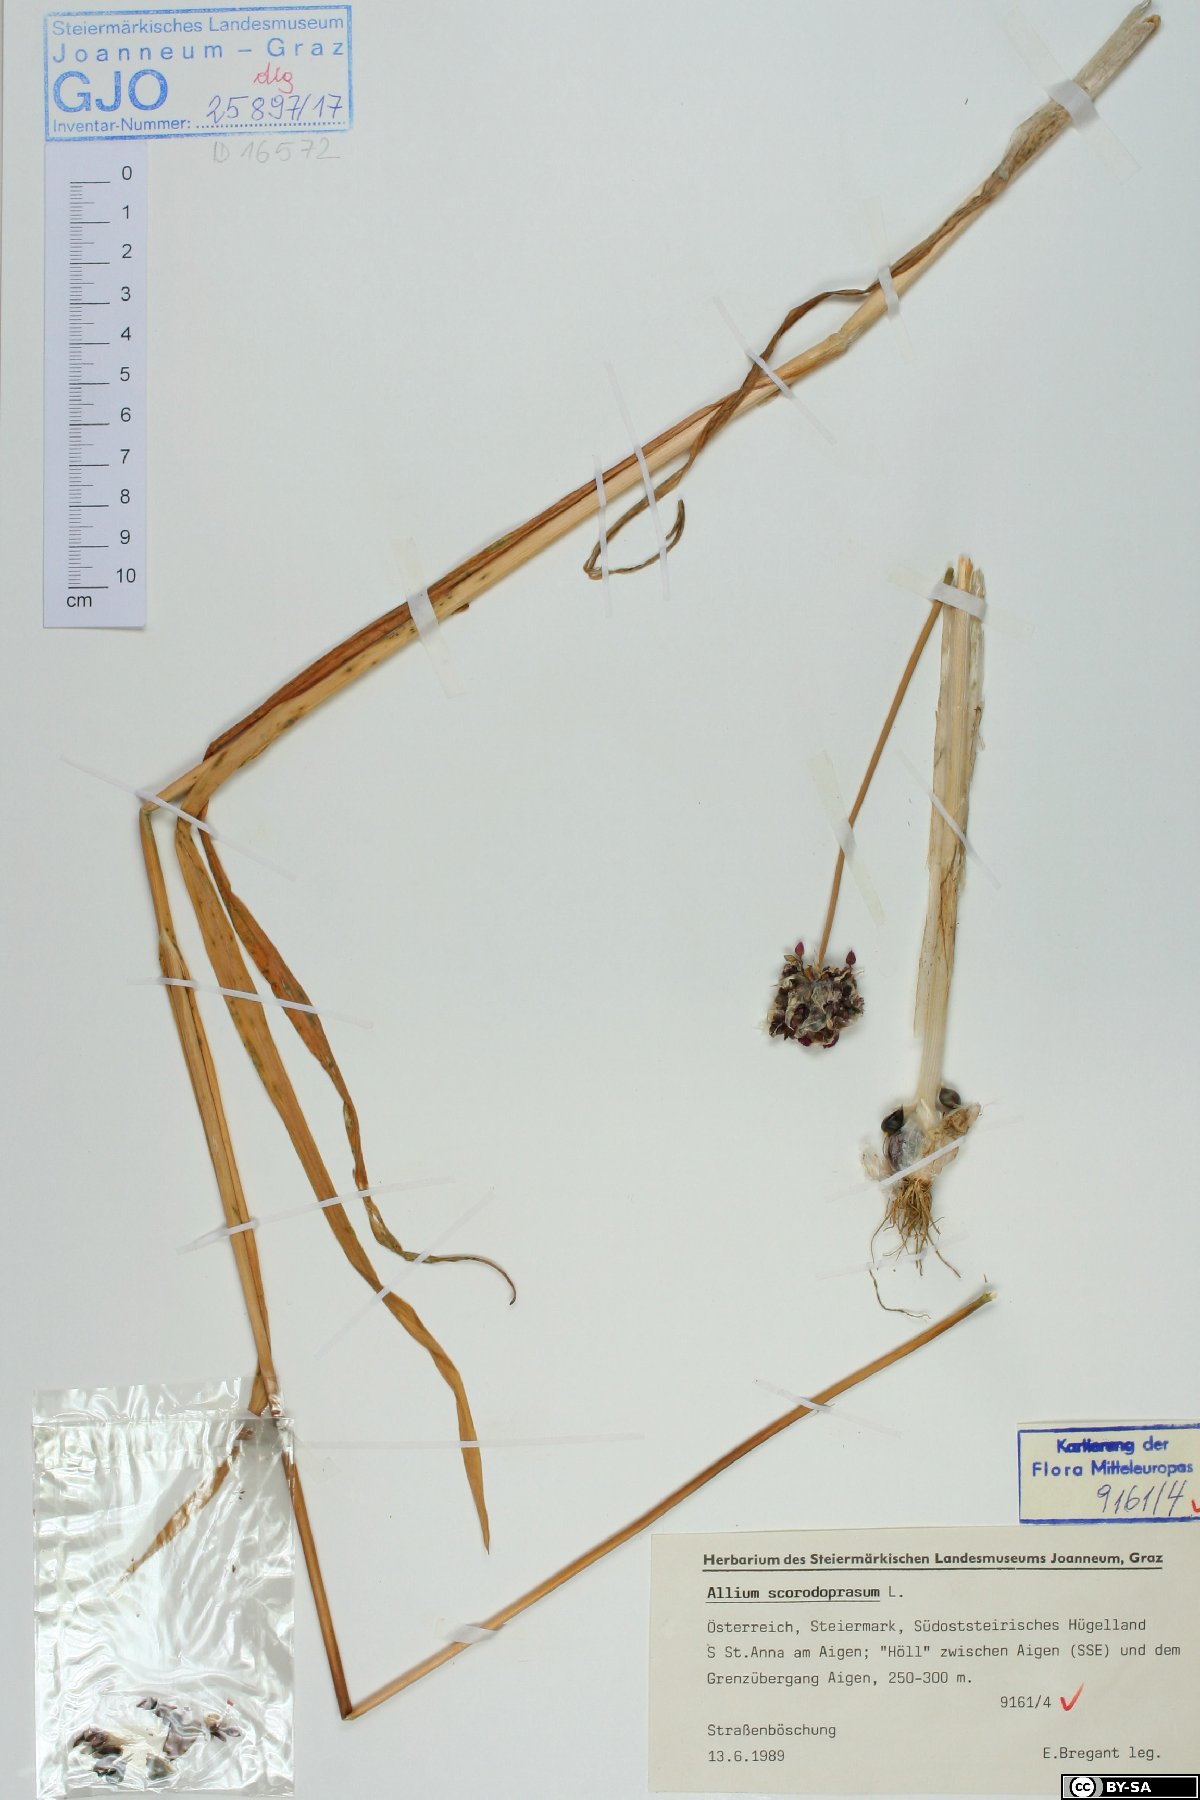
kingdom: Plantae
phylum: Tracheophyta
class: Liliopsida
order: Asparagales
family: Amaryllidaceae
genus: Allium
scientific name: Allium scorodoprasum
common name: Sand leek
